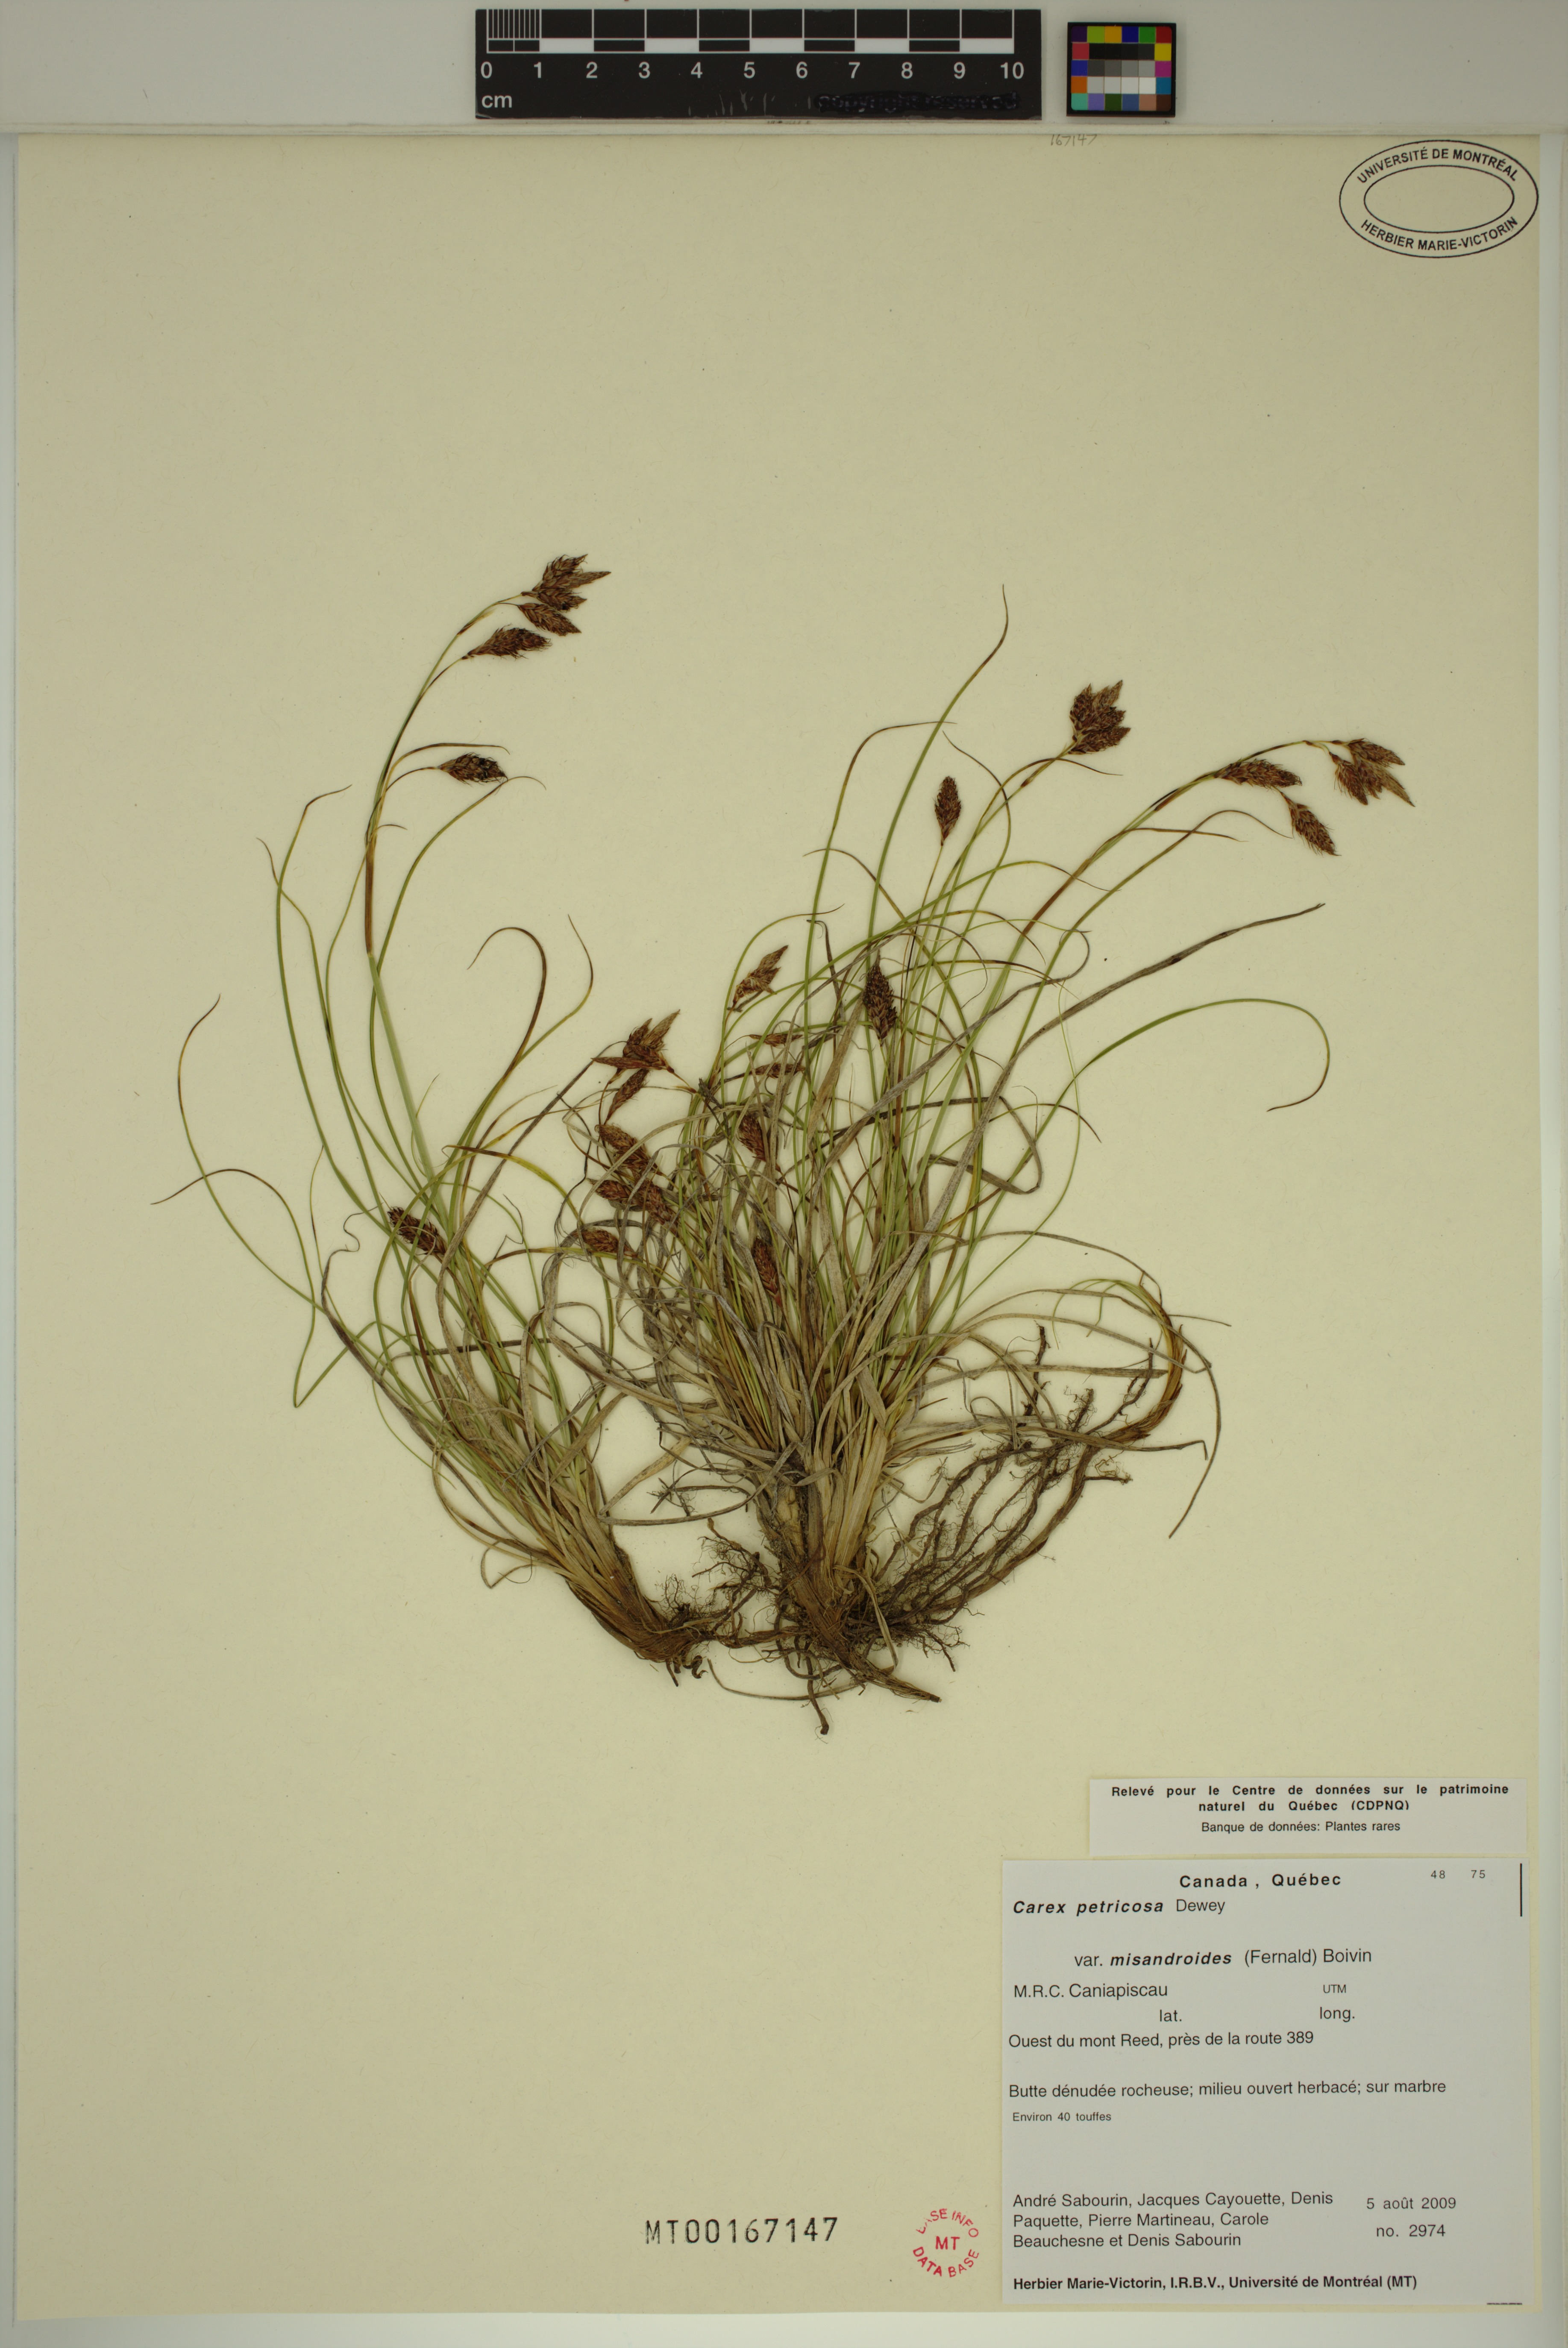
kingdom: Plantae
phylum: Tracheophyta
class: Liliopsida
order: Poales
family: Cyperaceae
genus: Carex
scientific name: Carex petricosa
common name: Rock sedge
